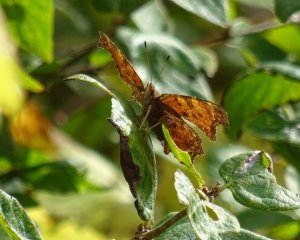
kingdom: Animalia
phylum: Arthropoda
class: Insecta
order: Lepidoptera
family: Nymphalidae
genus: Polygonia
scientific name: Polygonia
